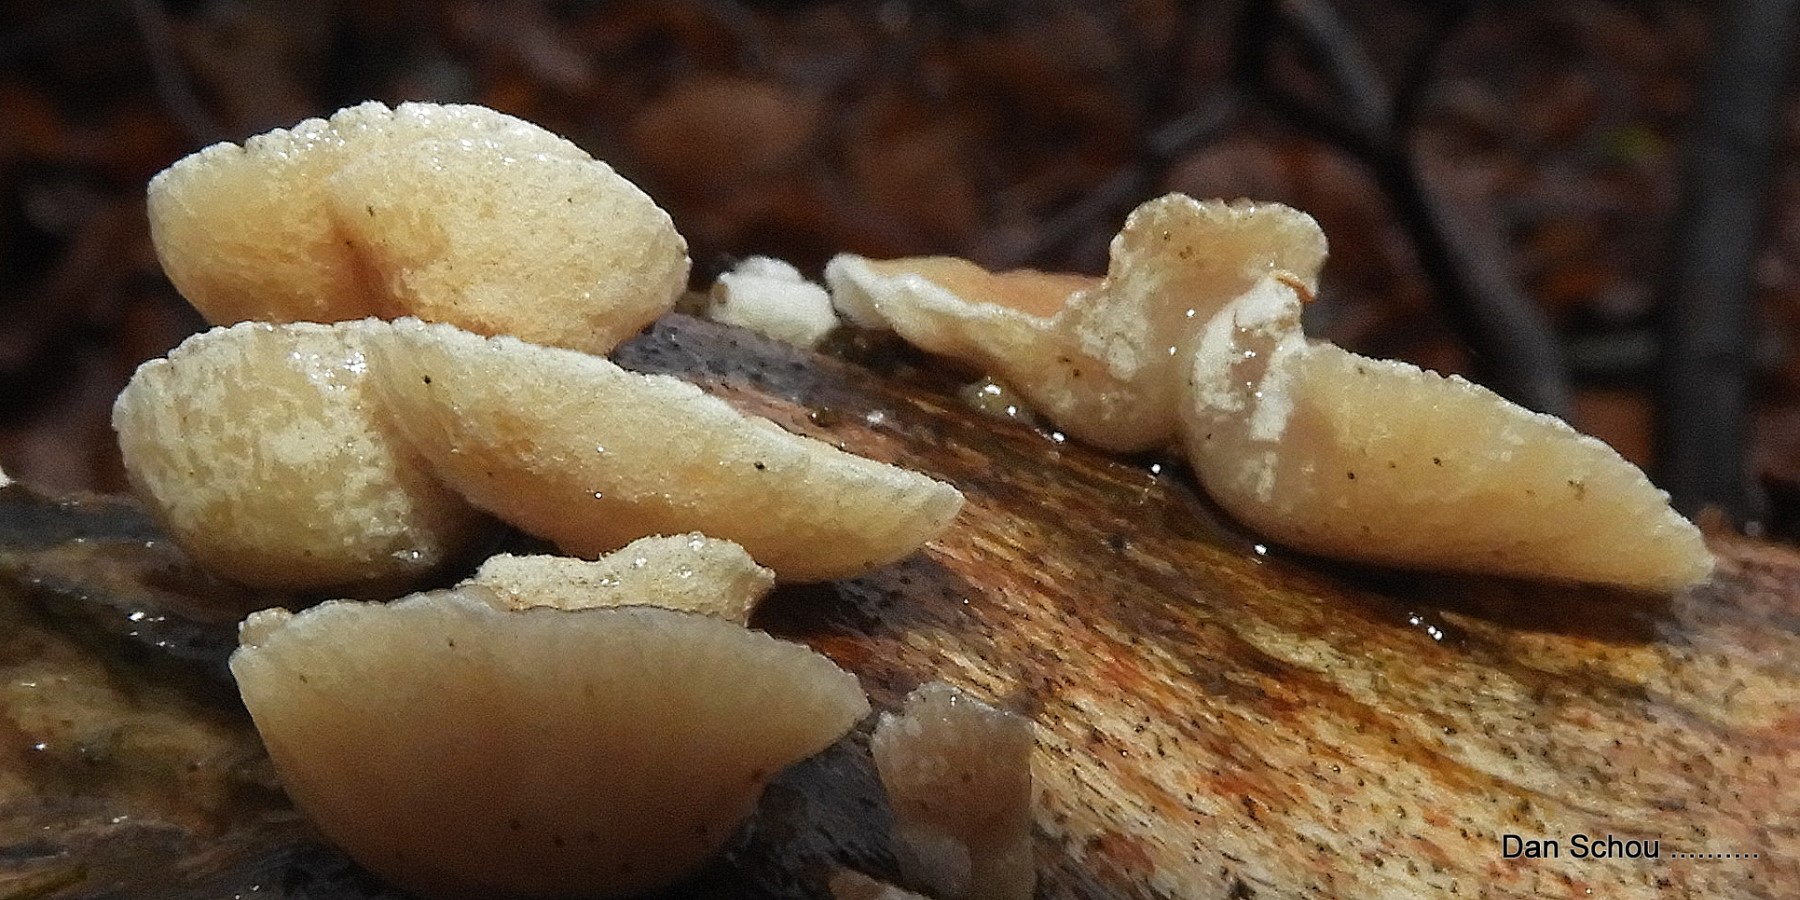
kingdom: Fungi
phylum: Basidiomycota
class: Agaricomycetes
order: Agaricales
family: Crepidotaceae
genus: Crepidotus
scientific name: Crepidotus
